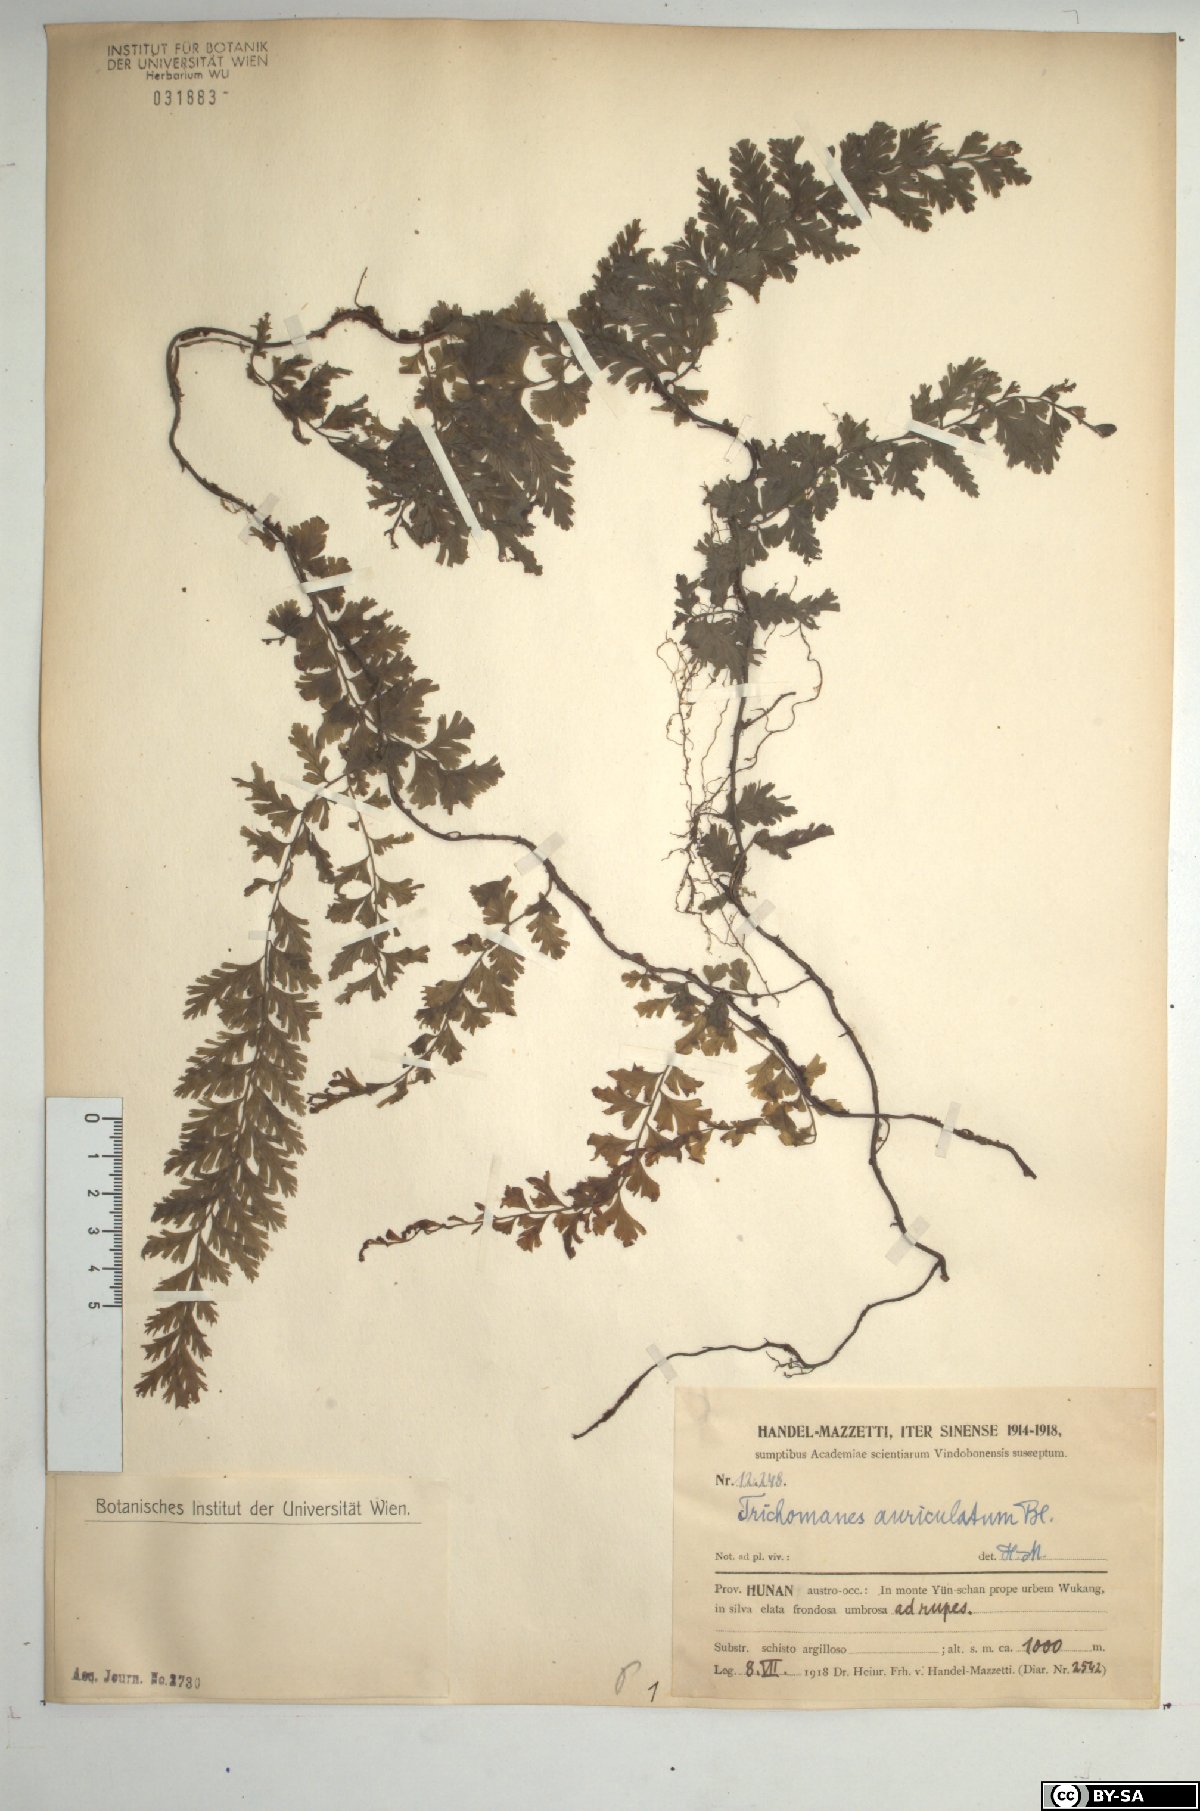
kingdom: Plantae
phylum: Tracheophyta
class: Polypodiopsida
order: Hymenophyllales
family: Hymenophyllaceae
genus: Vandenboschia
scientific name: Vandenboschia auriculata
